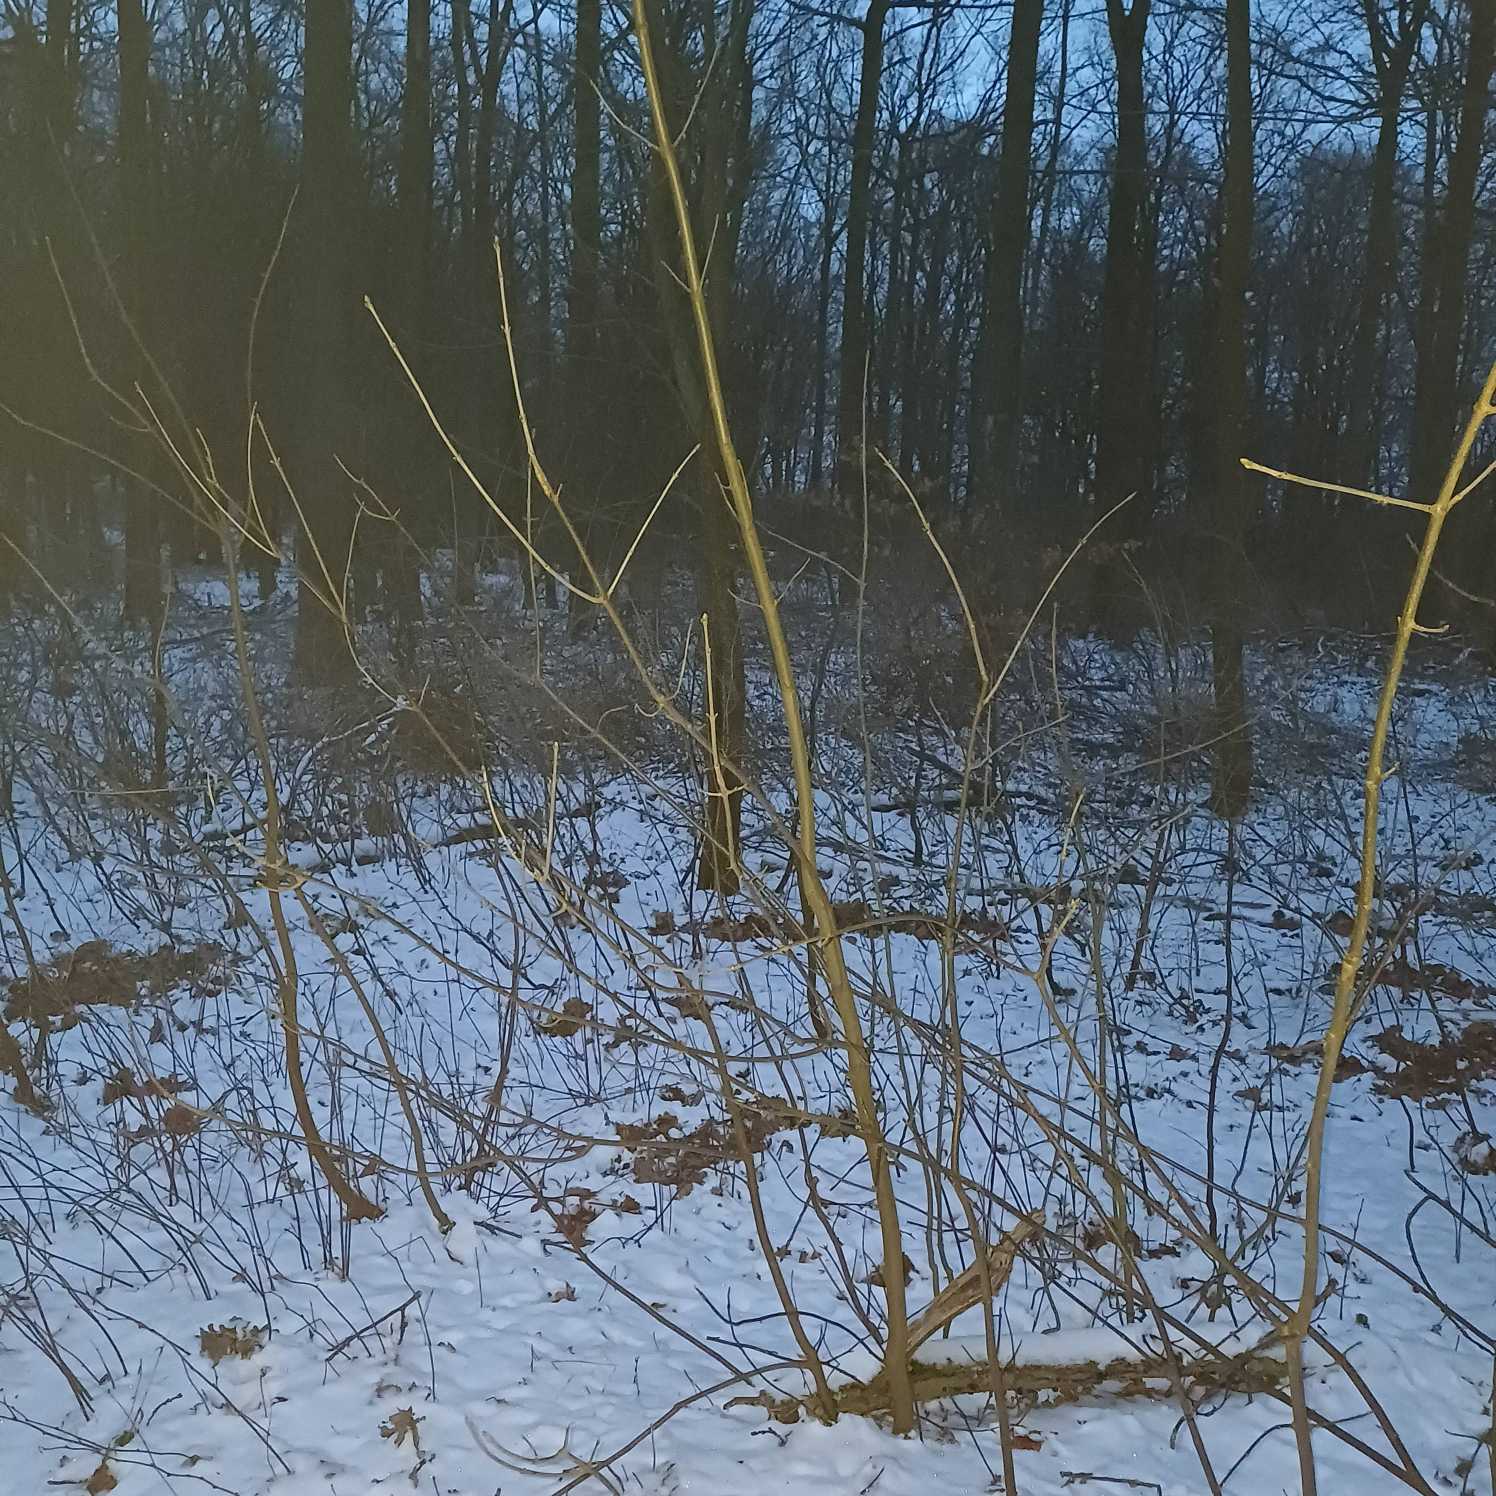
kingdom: Plantae
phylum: Tracheophyta
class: Magnoliopsida
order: Sapindales
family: Sapindaceae
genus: Acer
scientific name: Acer pseudoplatanus
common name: Ahorn
